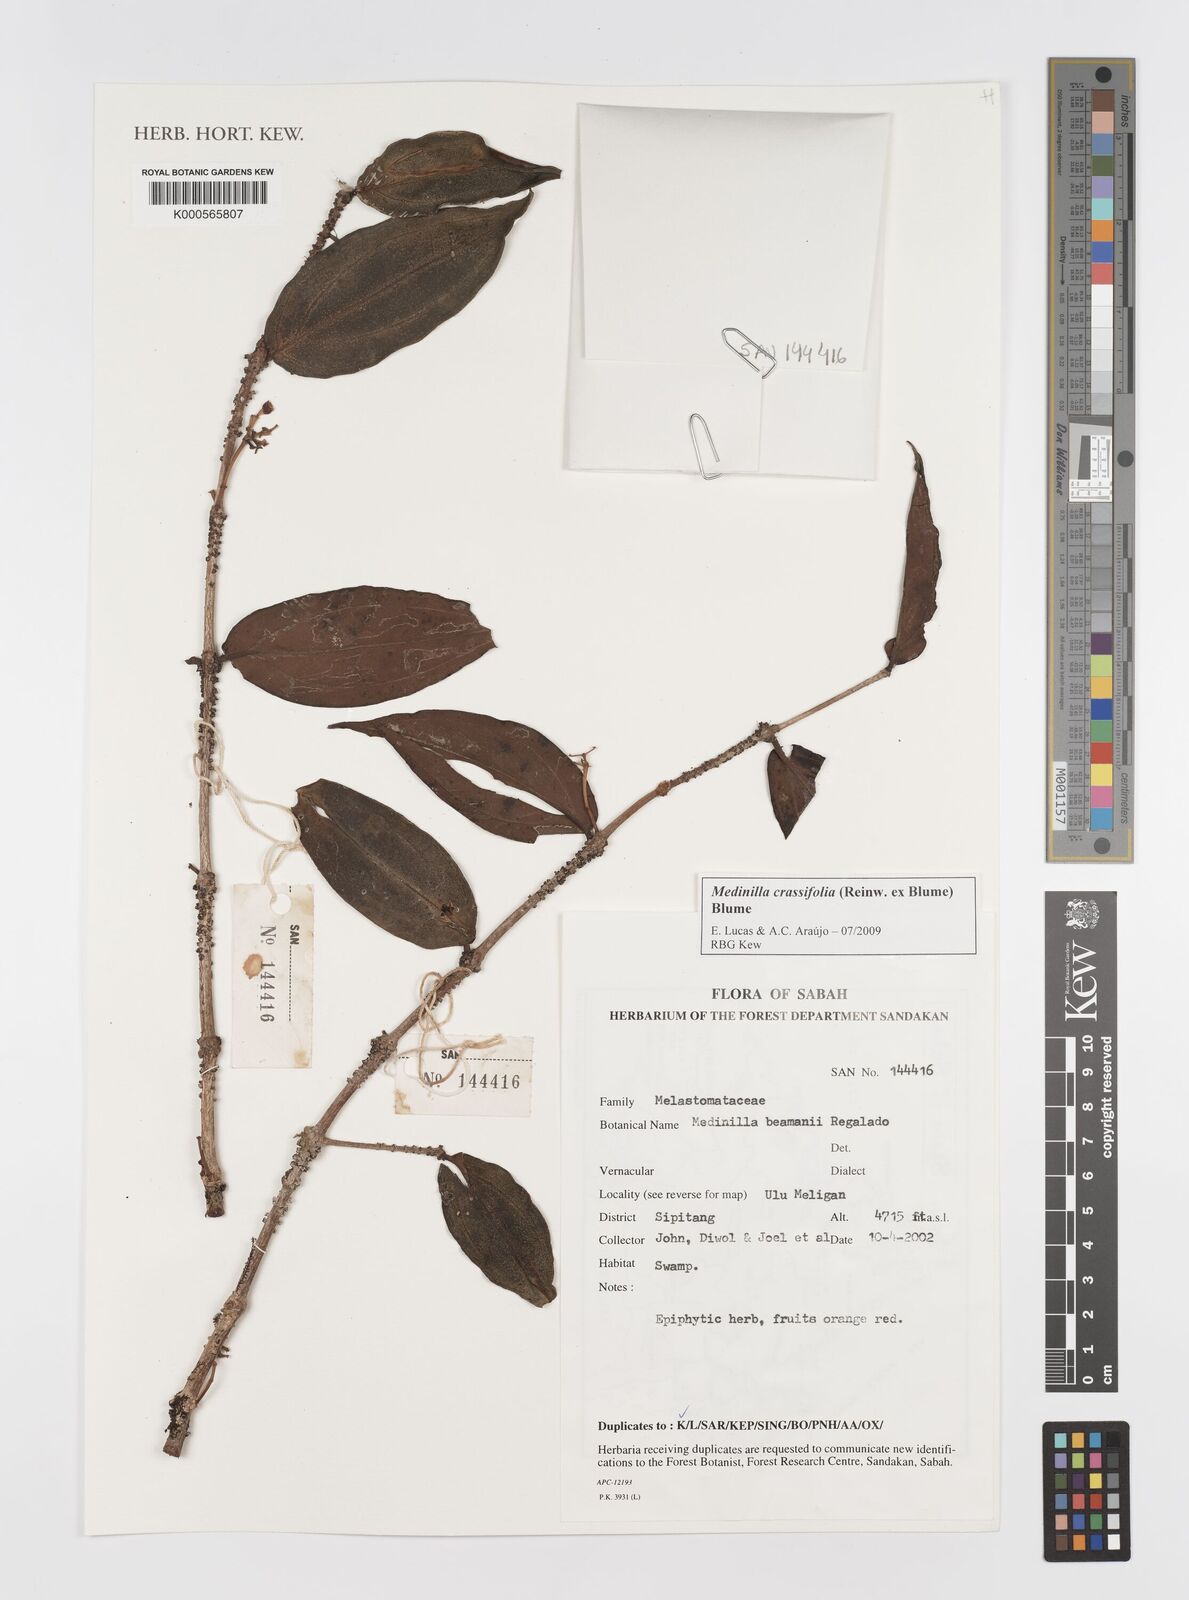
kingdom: Plantae
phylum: Tracheophyta
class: Magnoliopsida
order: Myrtales
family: Melastomataceae
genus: Medinilla
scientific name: Medinilla crassifolia
